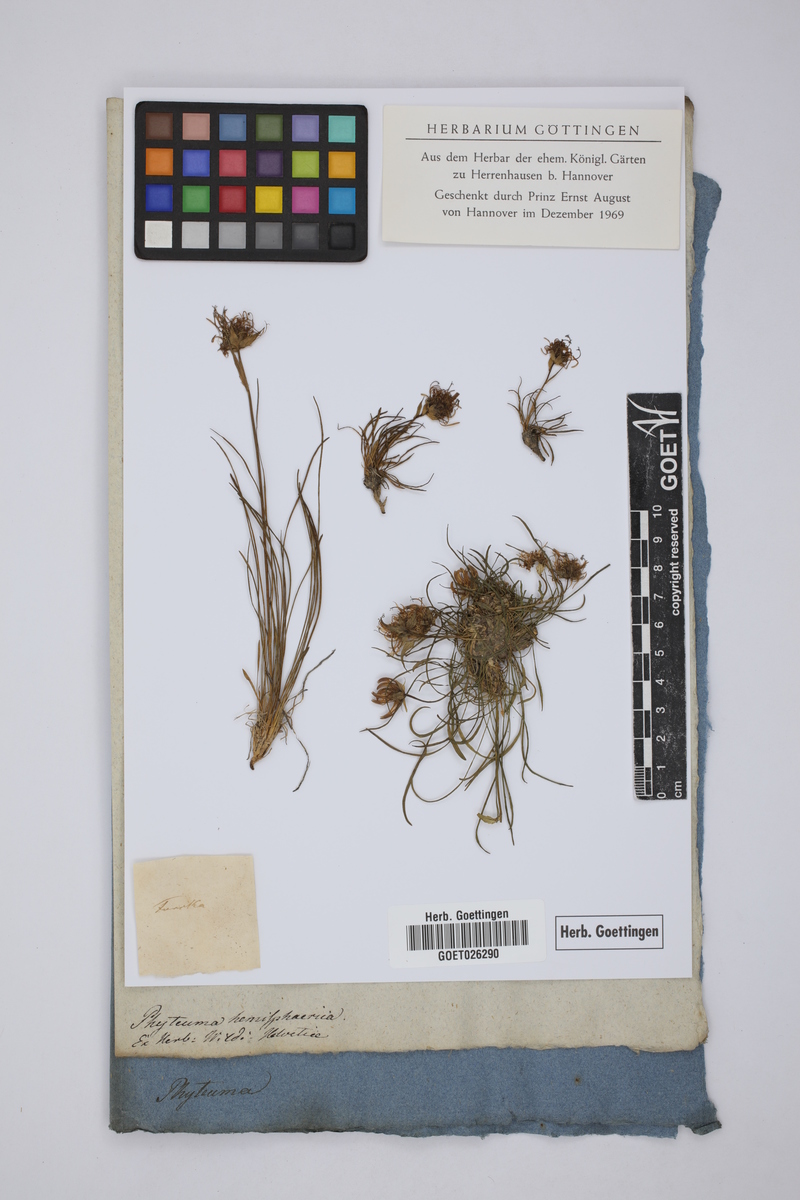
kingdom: Plantae
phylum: Tracheophyta
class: Magnoliopsida
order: Asterales
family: Campanulaceae
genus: Phyteuma
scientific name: Phyteuma hemisphaericum
